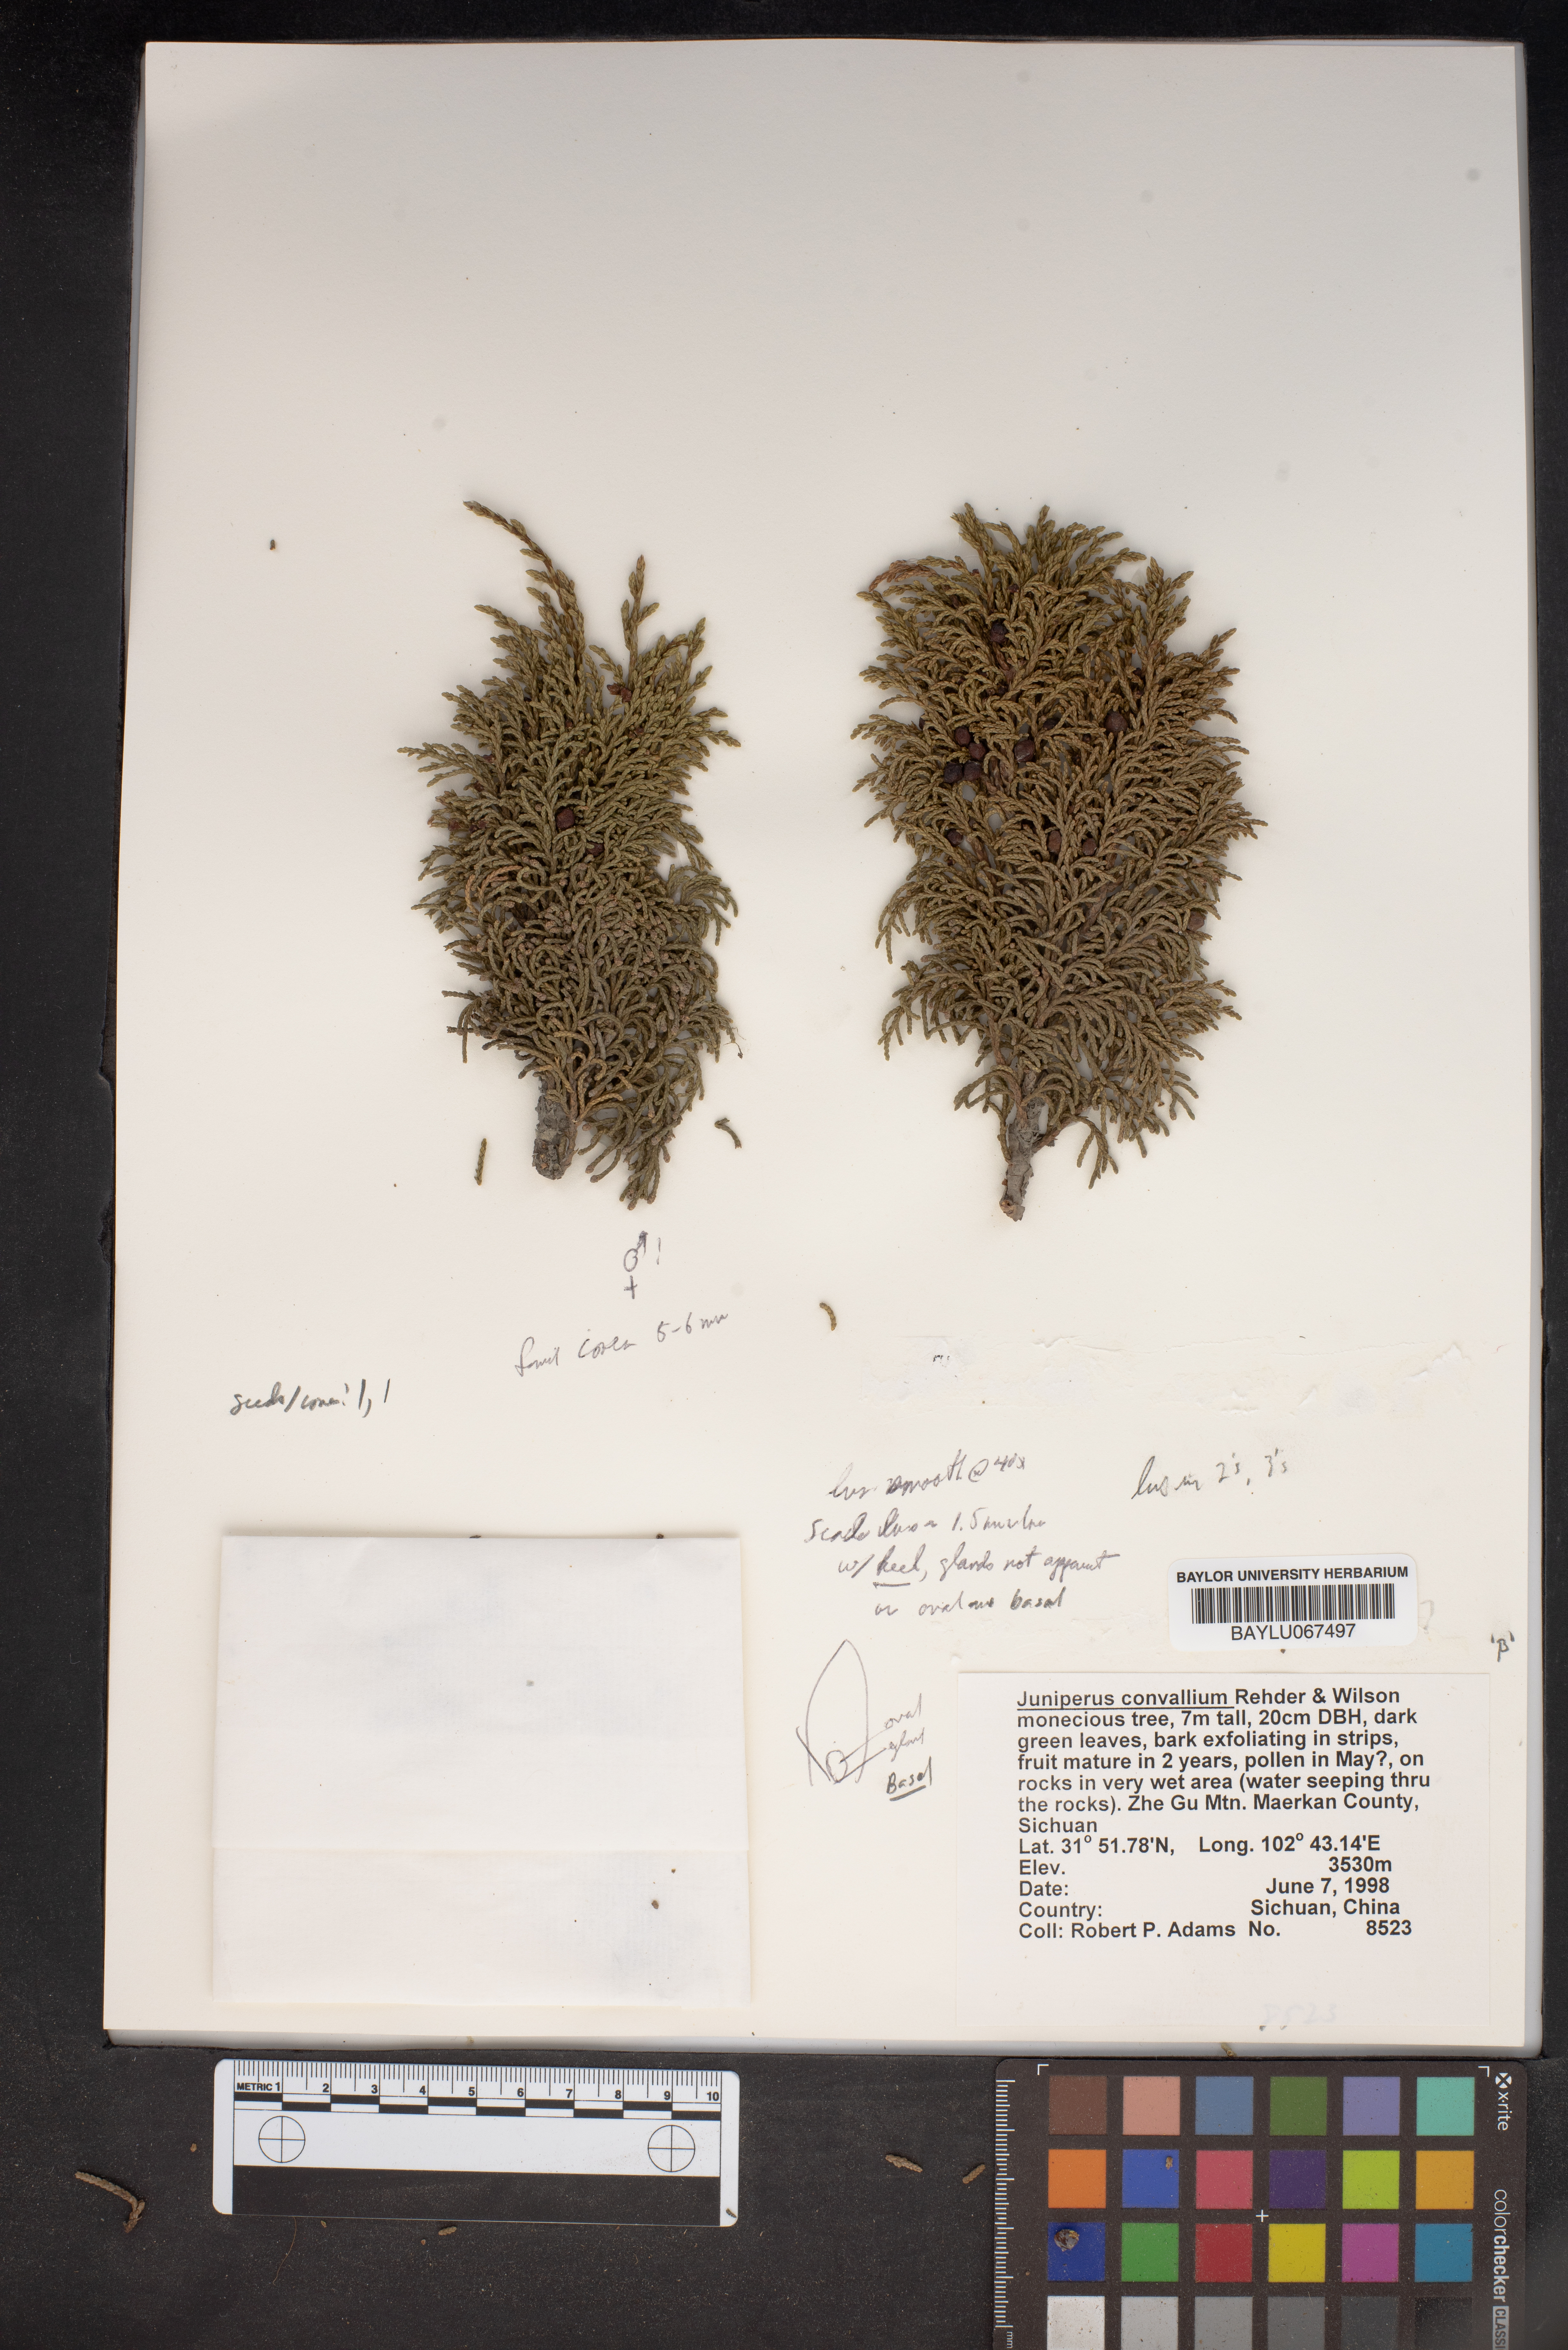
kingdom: Plantae
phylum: Tracheophyta
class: Pinopsida
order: Pinales
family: Cupressaceae
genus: Juniperus
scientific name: Juniperus convallium
